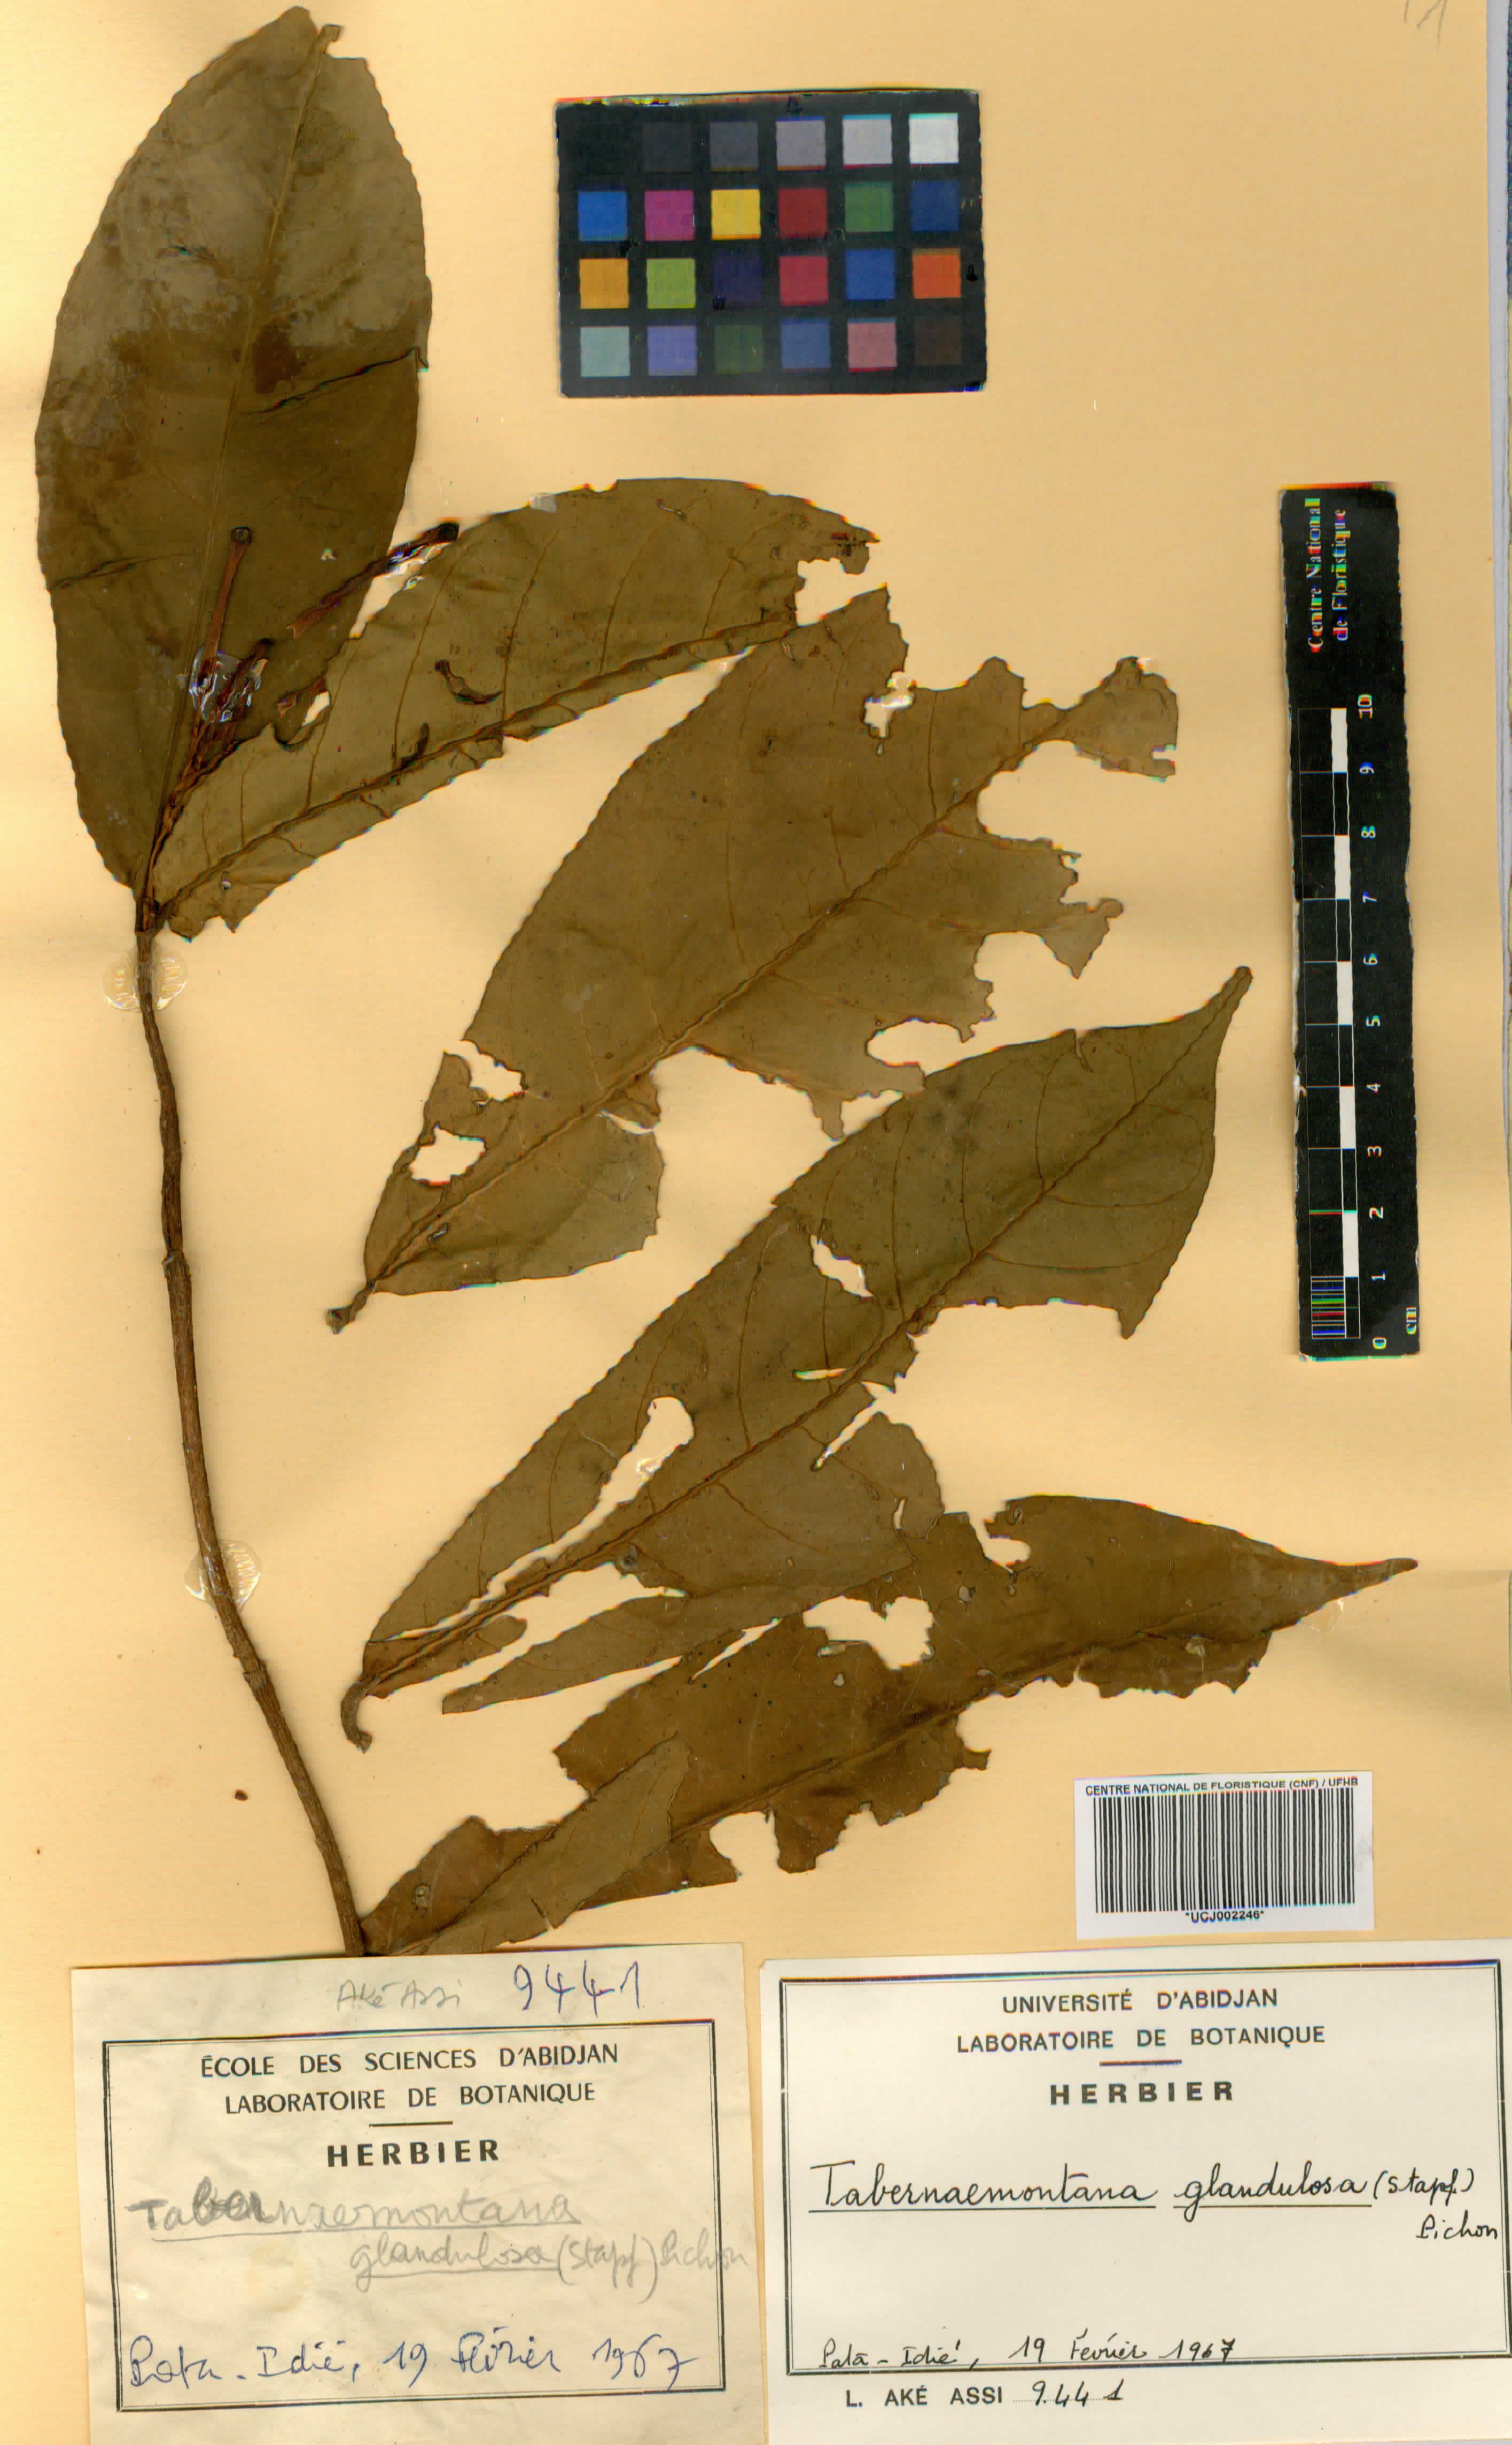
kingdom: Plantae
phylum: Tracheophyta
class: Magnoliopsida
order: Gentianales
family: Apocynaceae
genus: Tabernaemontana
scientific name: Tabernaemontana glandulosa
